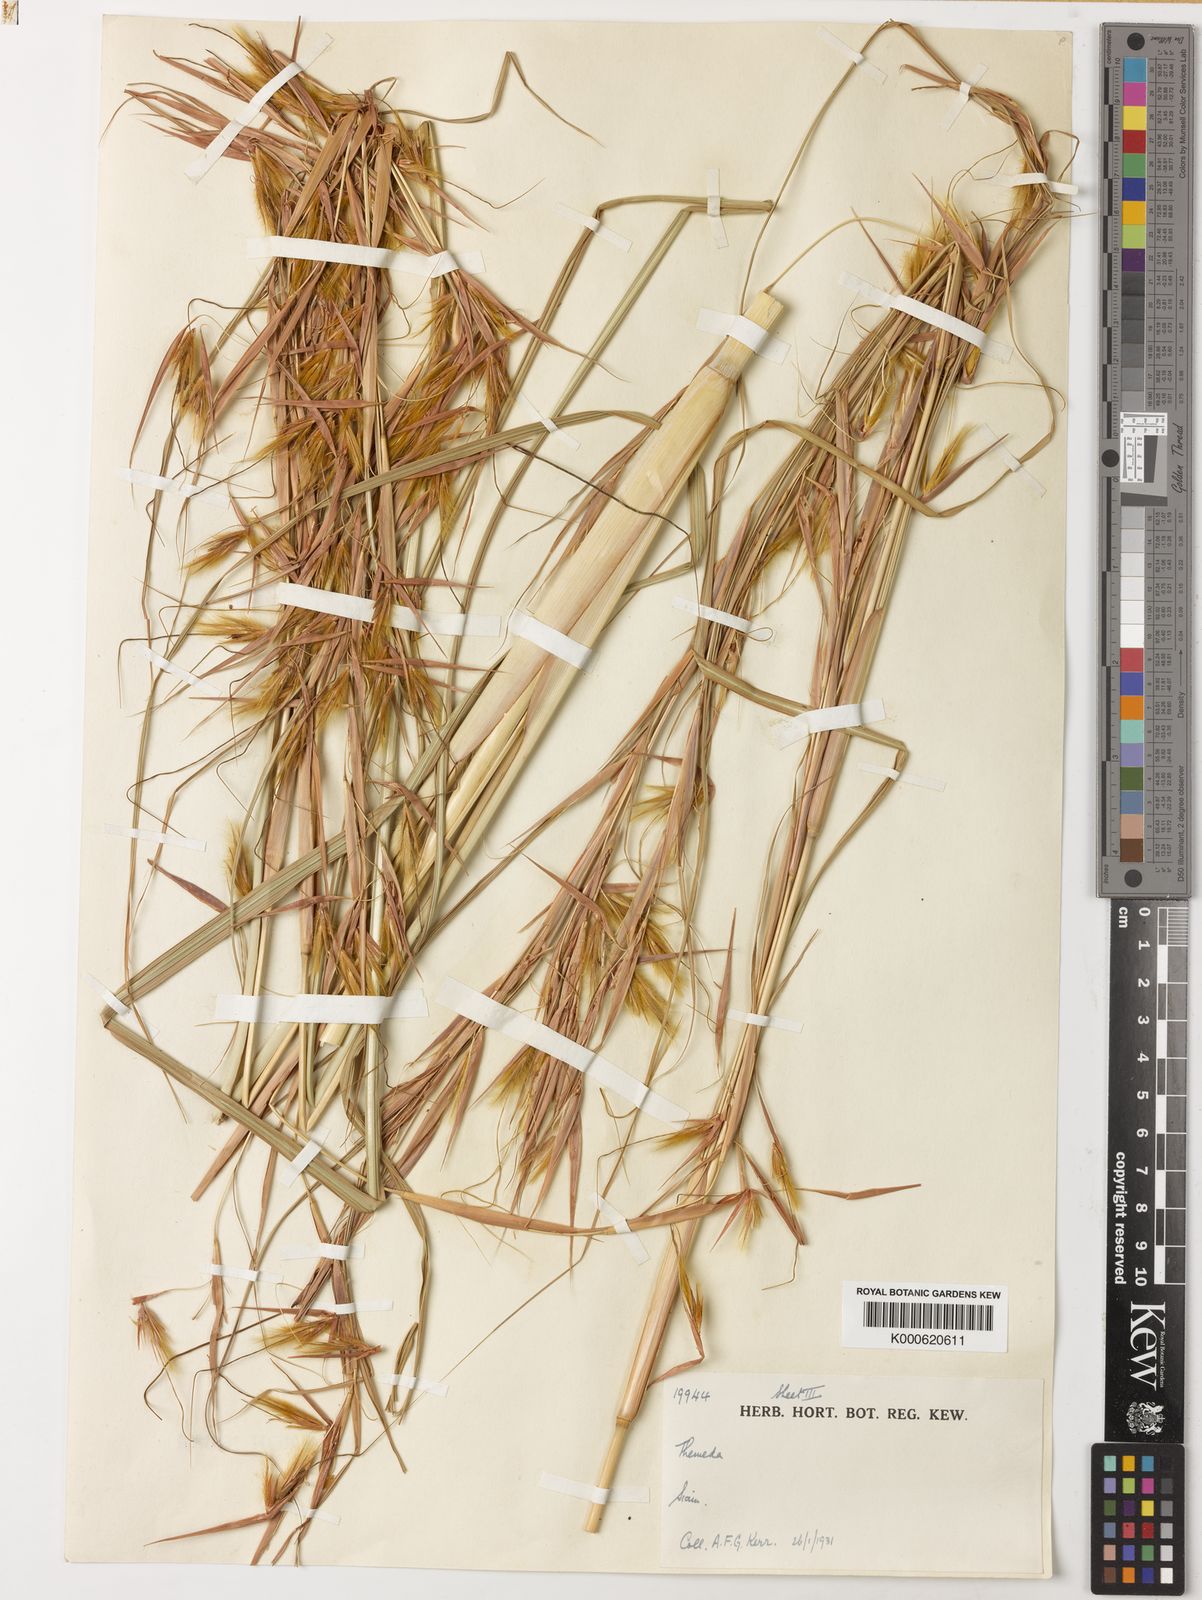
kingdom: Plantae
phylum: Tracheophyta
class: Liliopsida
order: Poales
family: Poaceae
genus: Themeda
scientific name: Themeda arundinacea
